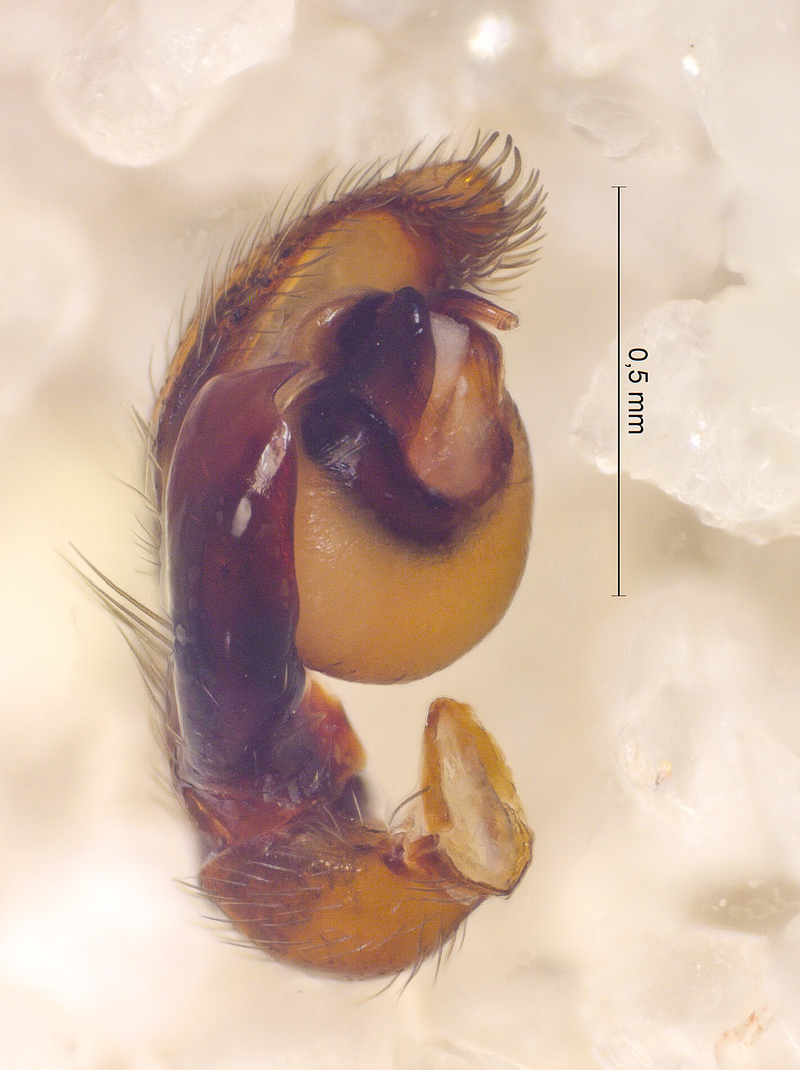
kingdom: Animalia
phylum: Arthropoda
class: Arachnida
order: Araneae
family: Phrurolithidae
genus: Phrurolithus
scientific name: Phrurolithus festivus
